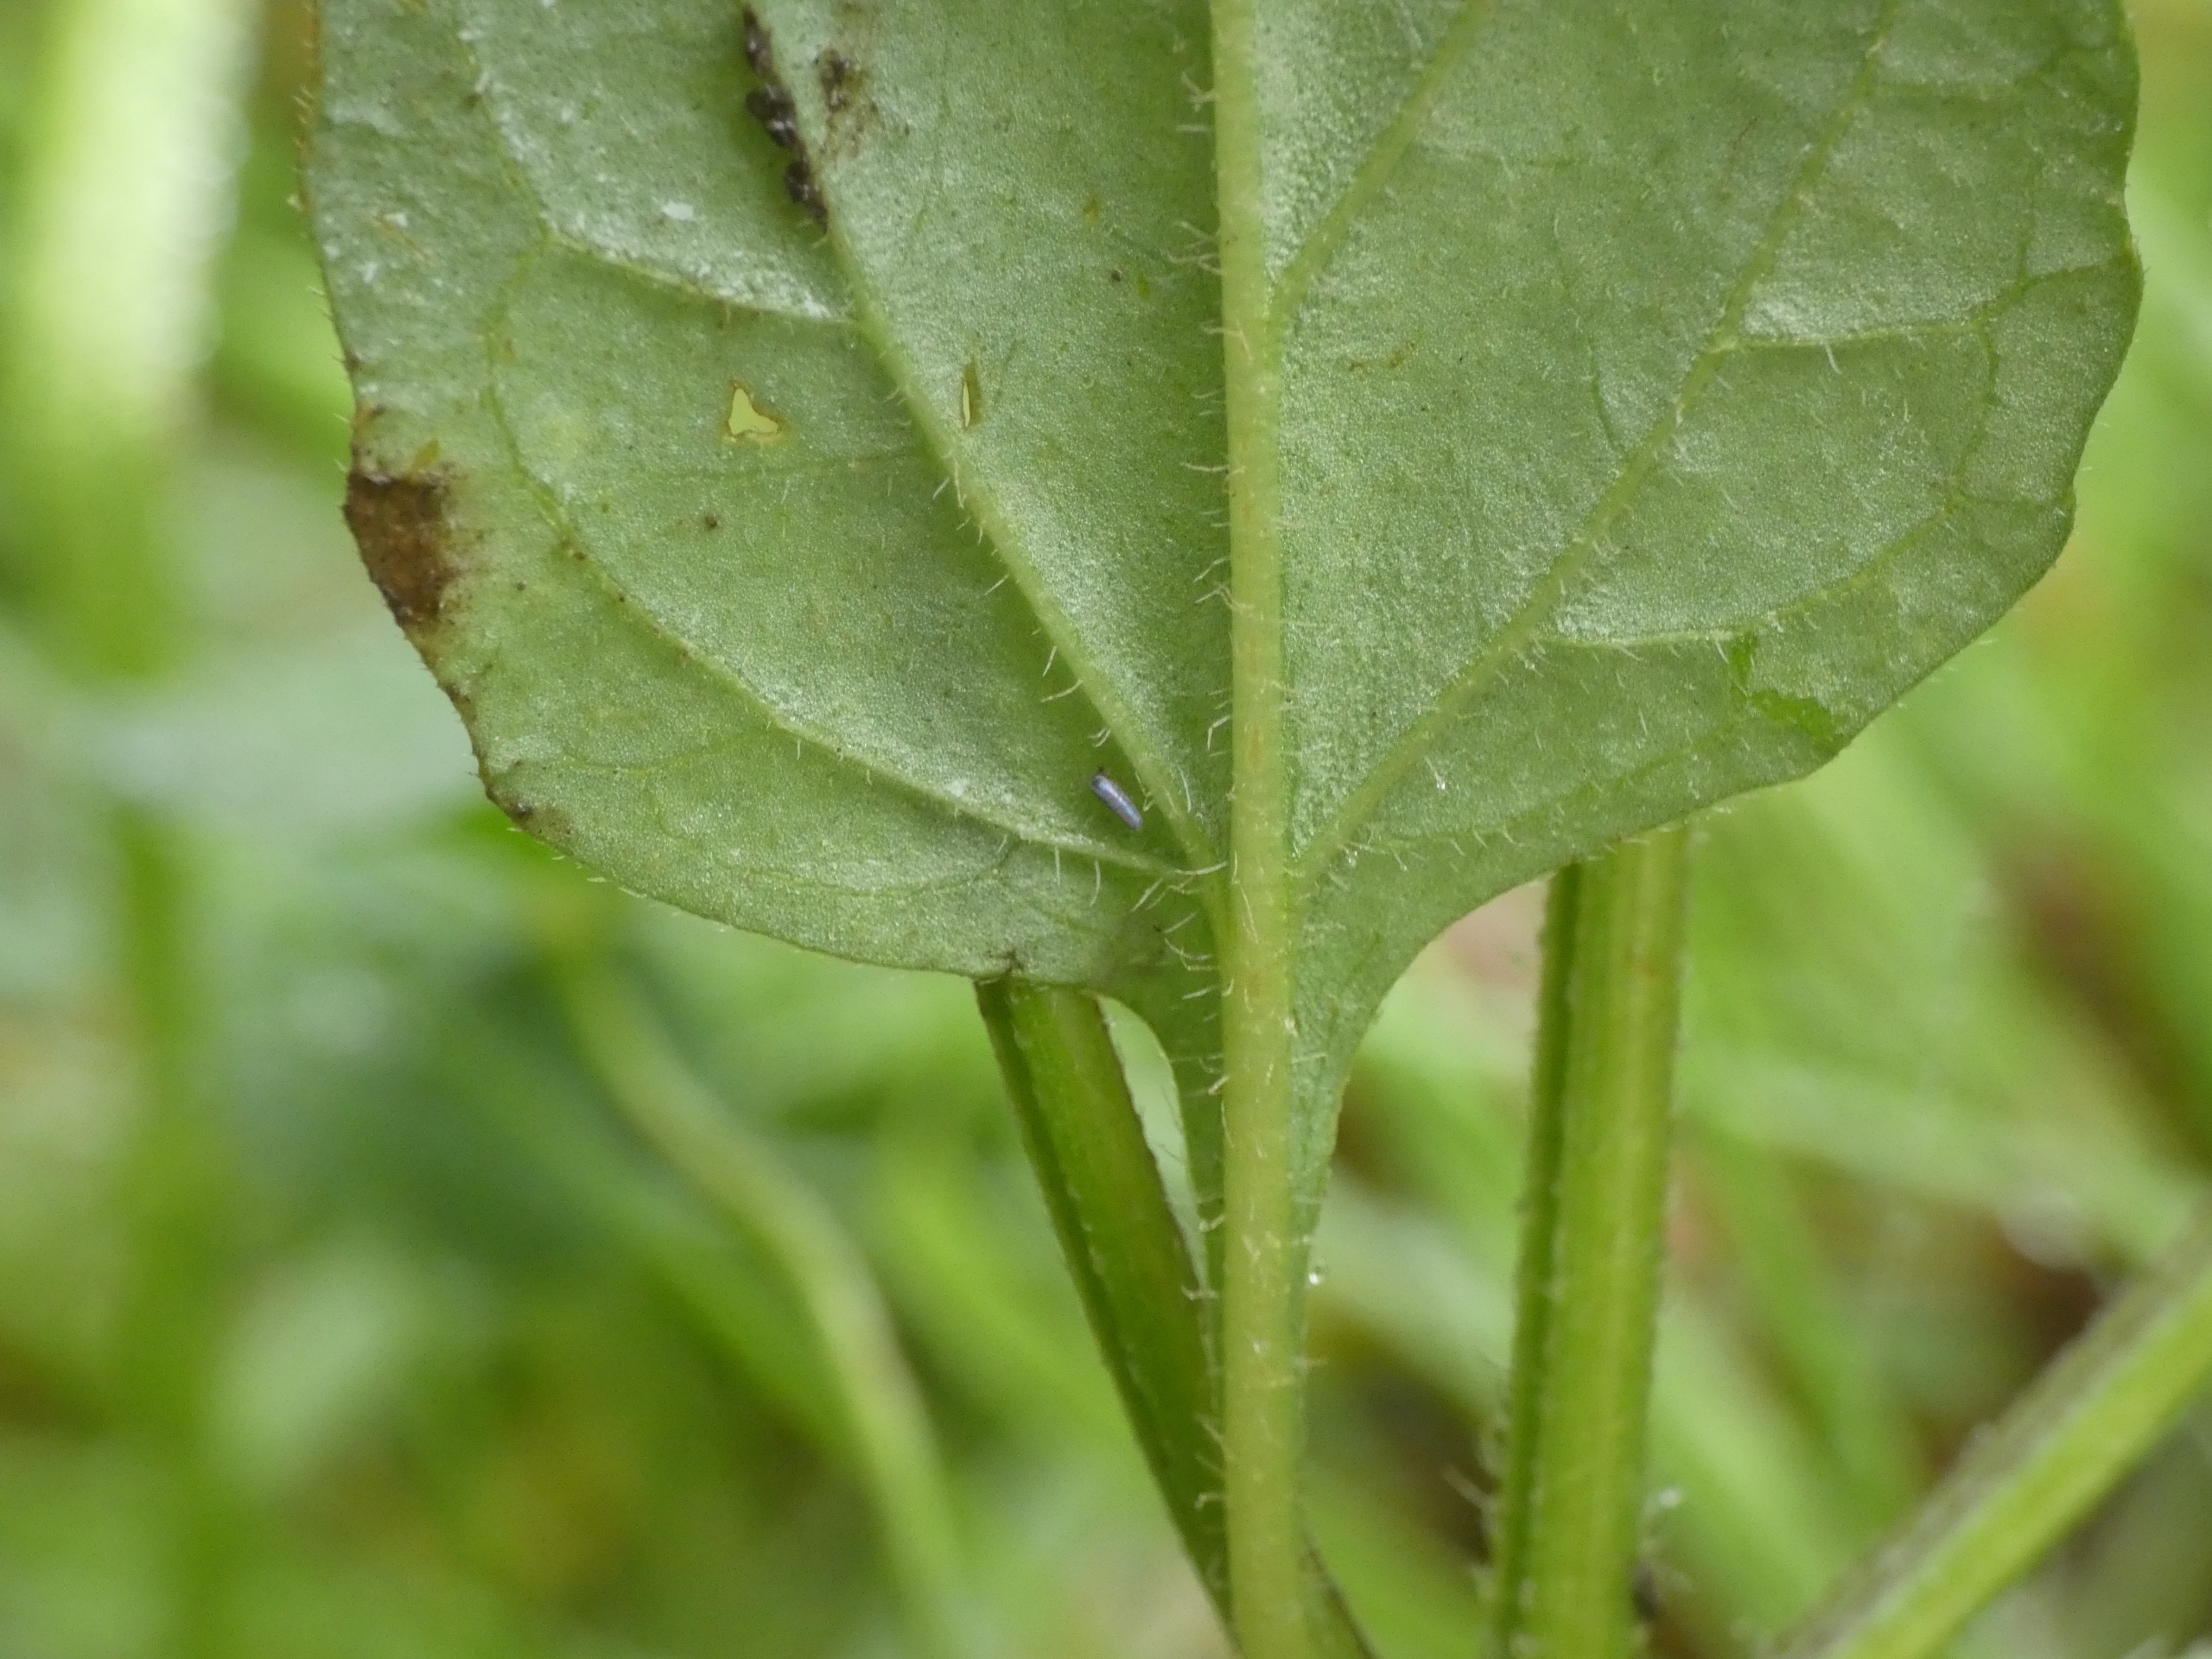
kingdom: Plantae
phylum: Tracheophyta
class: Magnoliopsida
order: Lamiales
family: Lamiaceae
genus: Prunella
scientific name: Prunella vulgaris
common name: Almindelig brunelle
